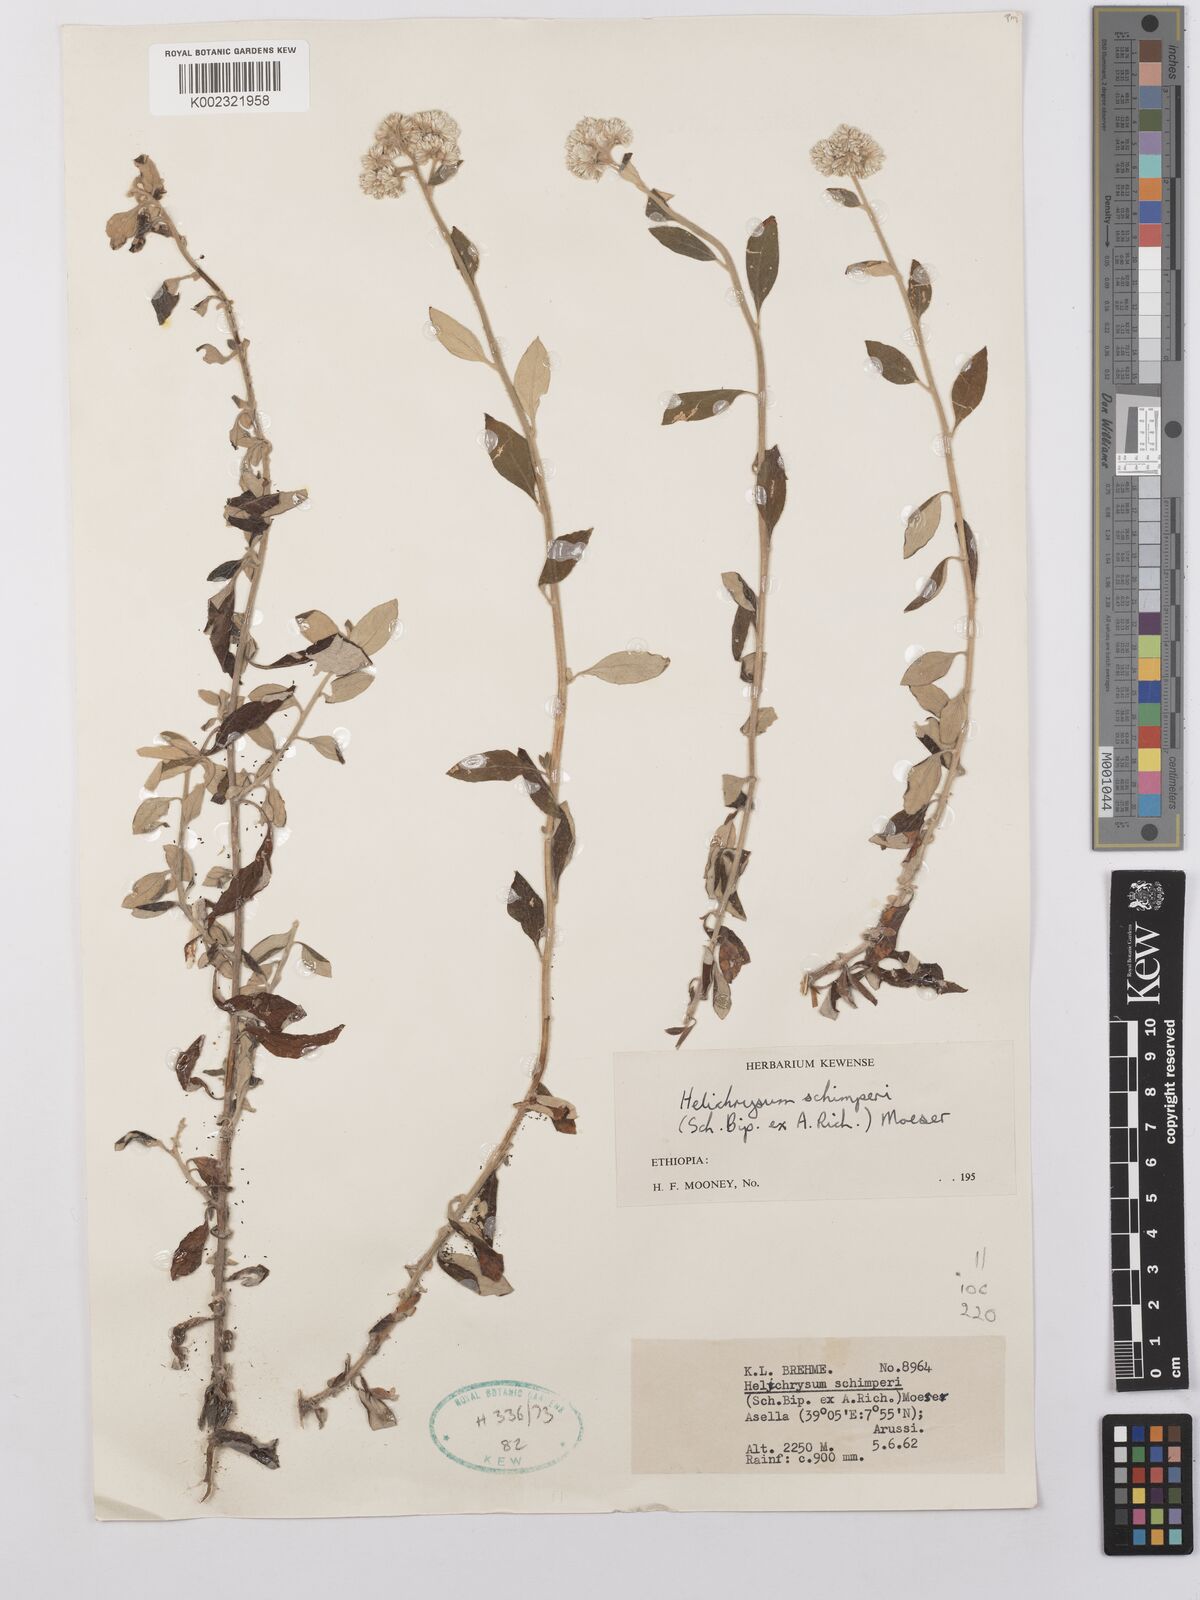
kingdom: Plantae
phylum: Tracheophyta
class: Magnoliopsida
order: Asterales
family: Asteraceae
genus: Helichrysum
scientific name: Helichrysum schimperi
